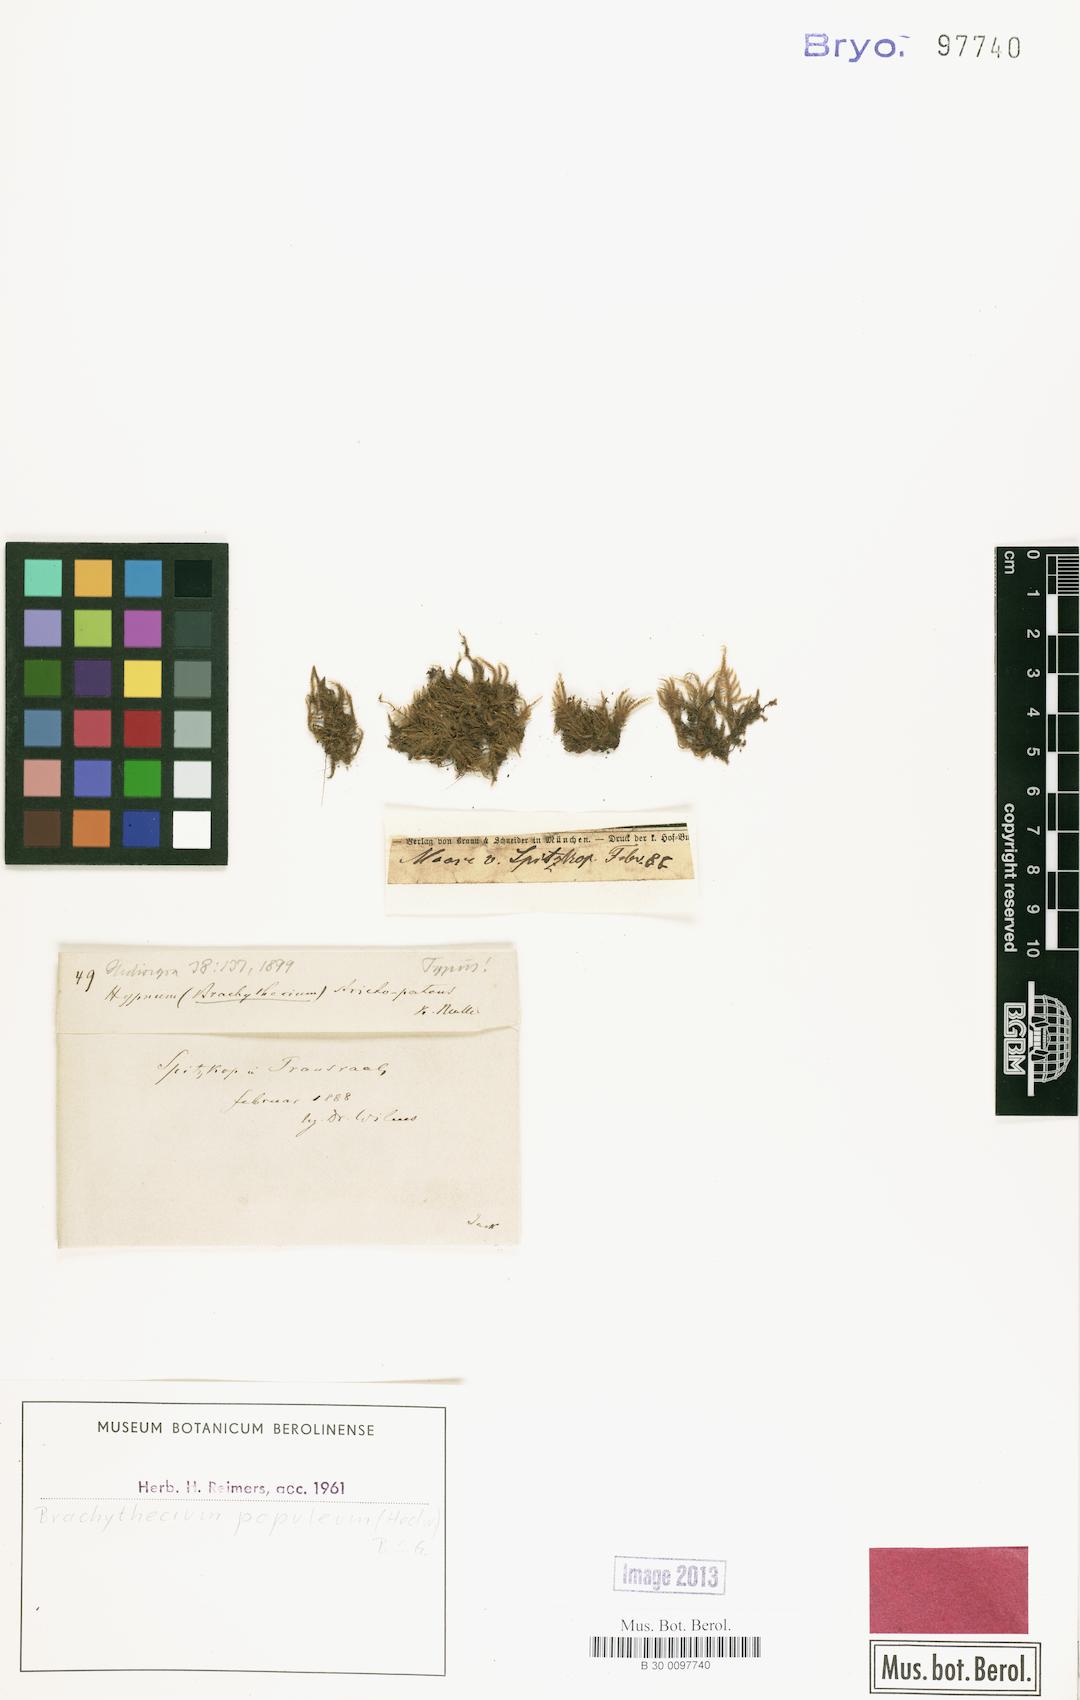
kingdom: Plantae
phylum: Bryophyta
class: Bryopsida
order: Hypnales
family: Brachytheciaceae
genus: Sciuro-hypnum
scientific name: Sciuro-hypnum populeum
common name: Matted feather-moss
